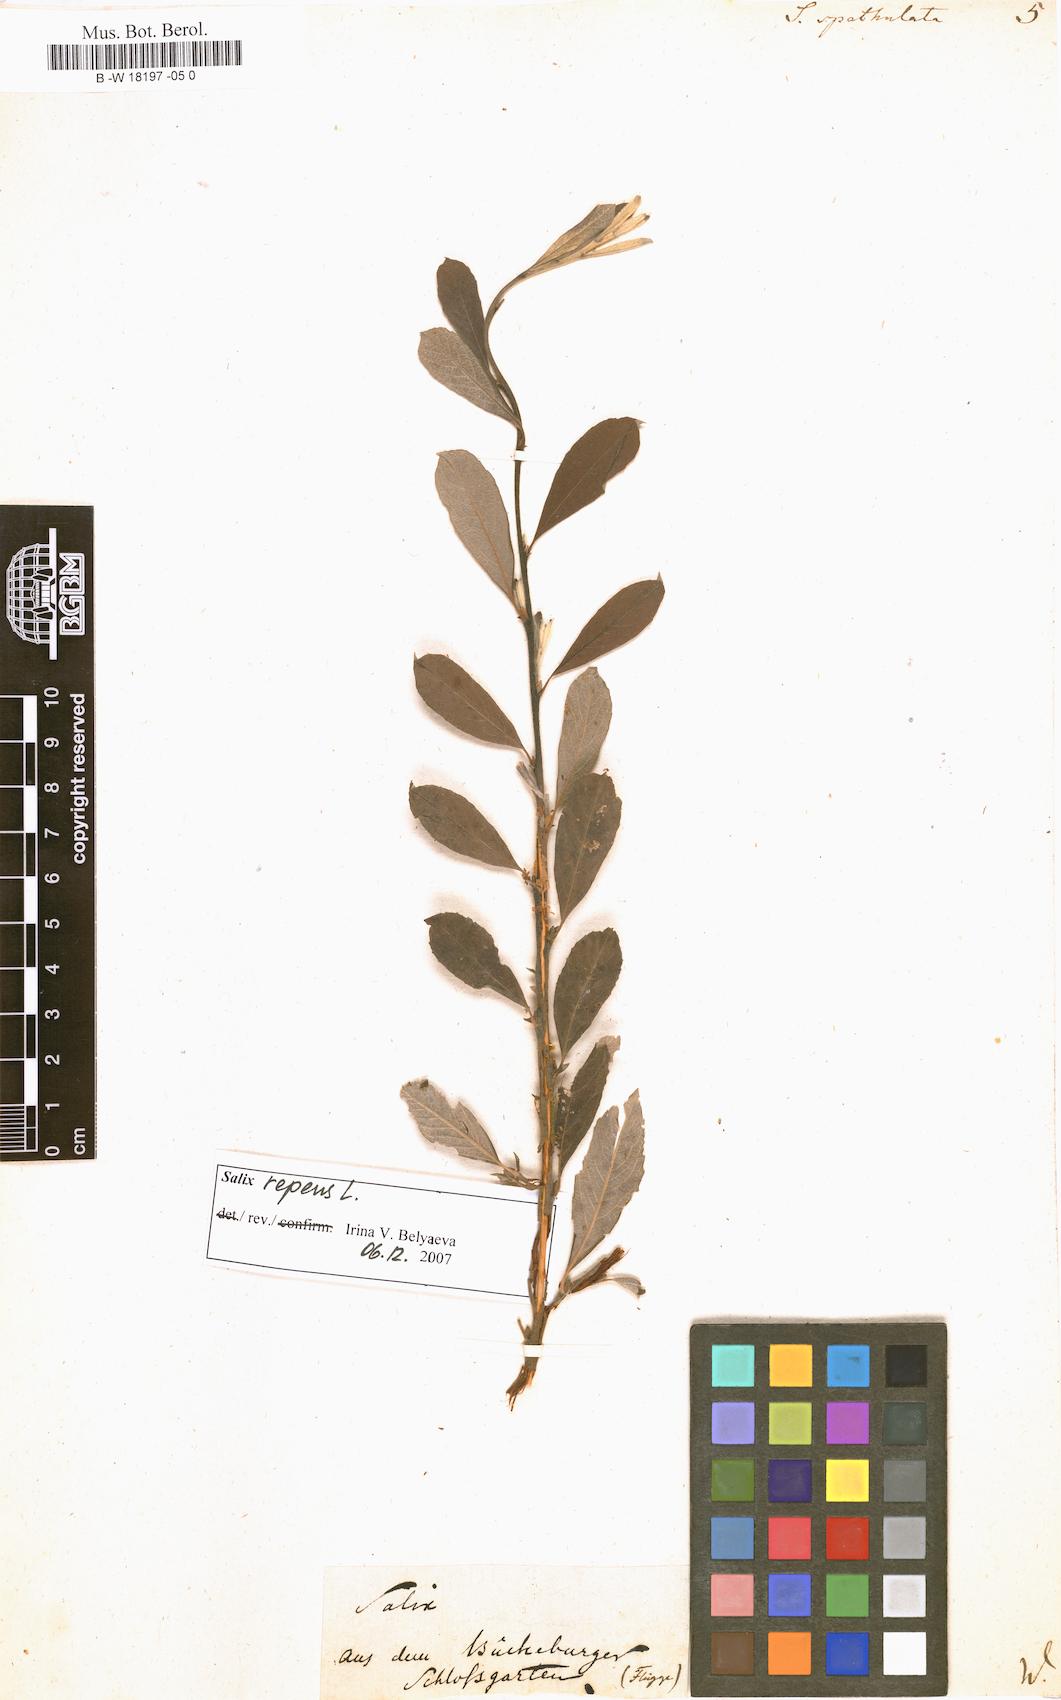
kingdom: Plantae
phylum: Tracheophyta
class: Magnoliopsida
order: Malpighiales
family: Salicaceae
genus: Salix
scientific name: Salix
